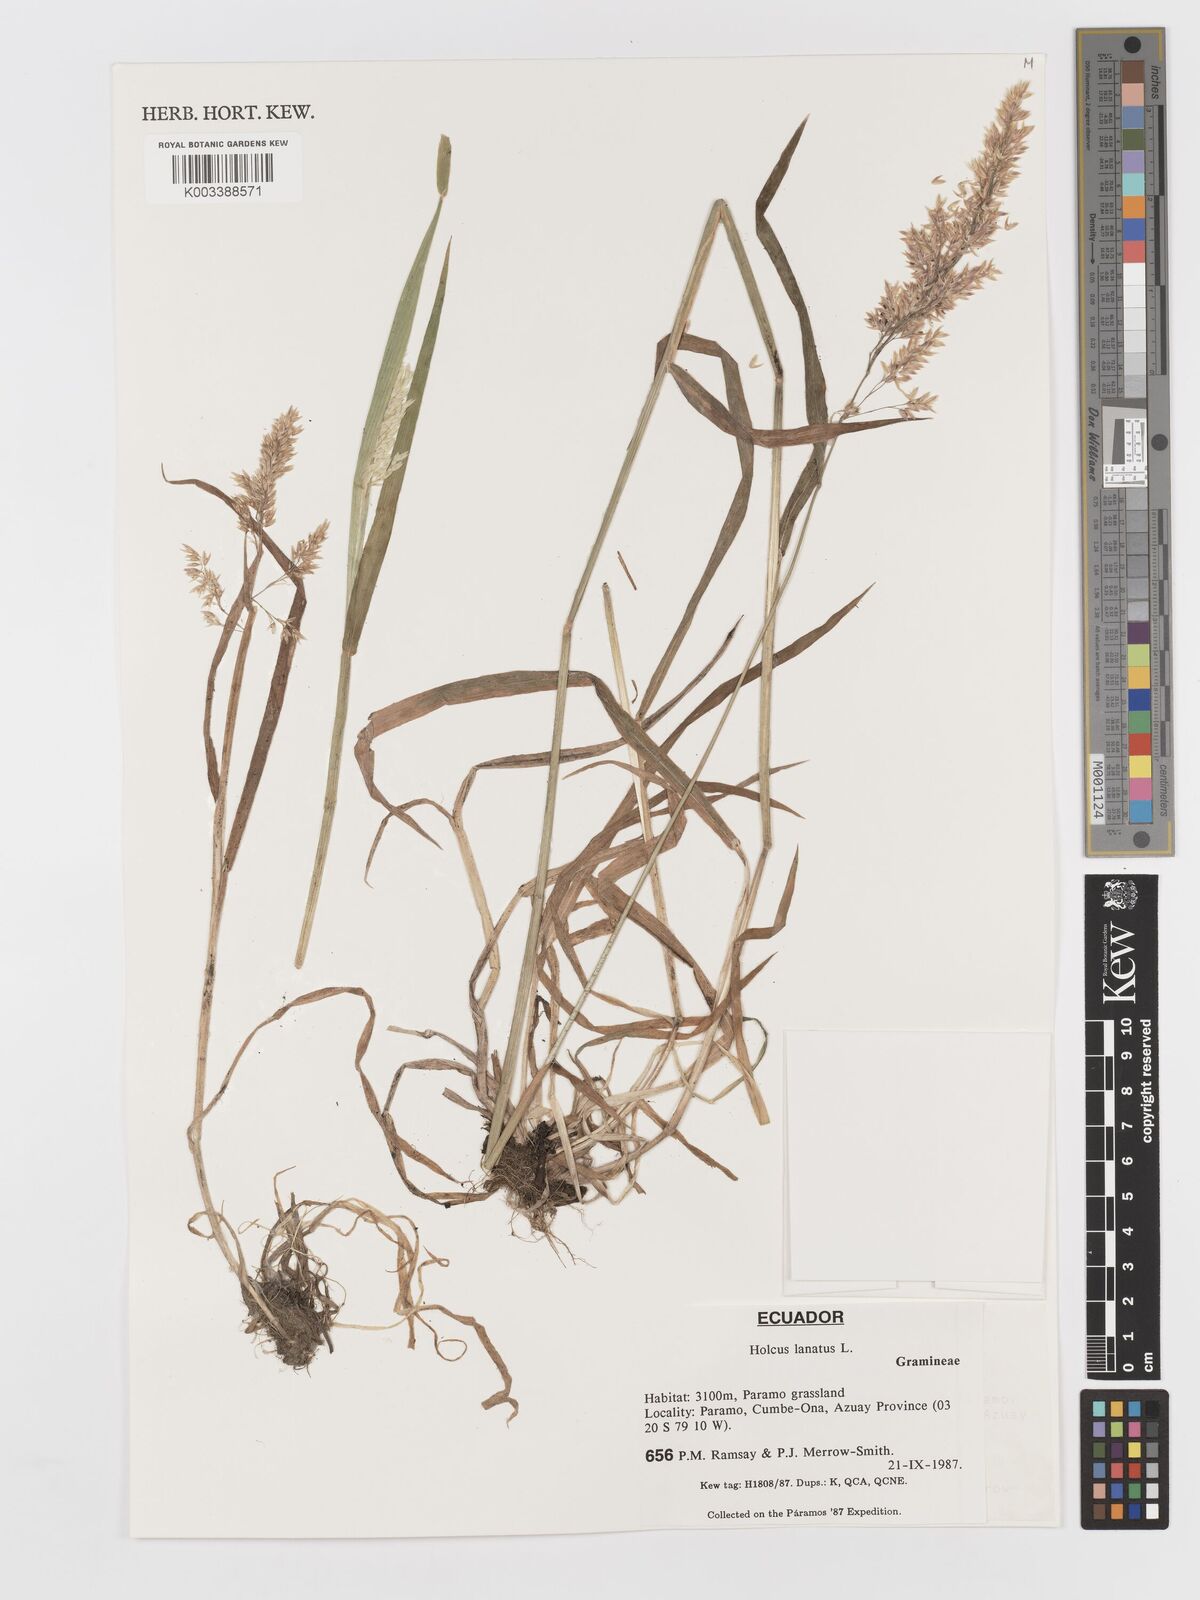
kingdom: Plantae
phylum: Tracheophyta
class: Liliopsida
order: Poales
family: Poaceae
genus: Holcus
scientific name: Holcus lanatus
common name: Yorkshire-fog
